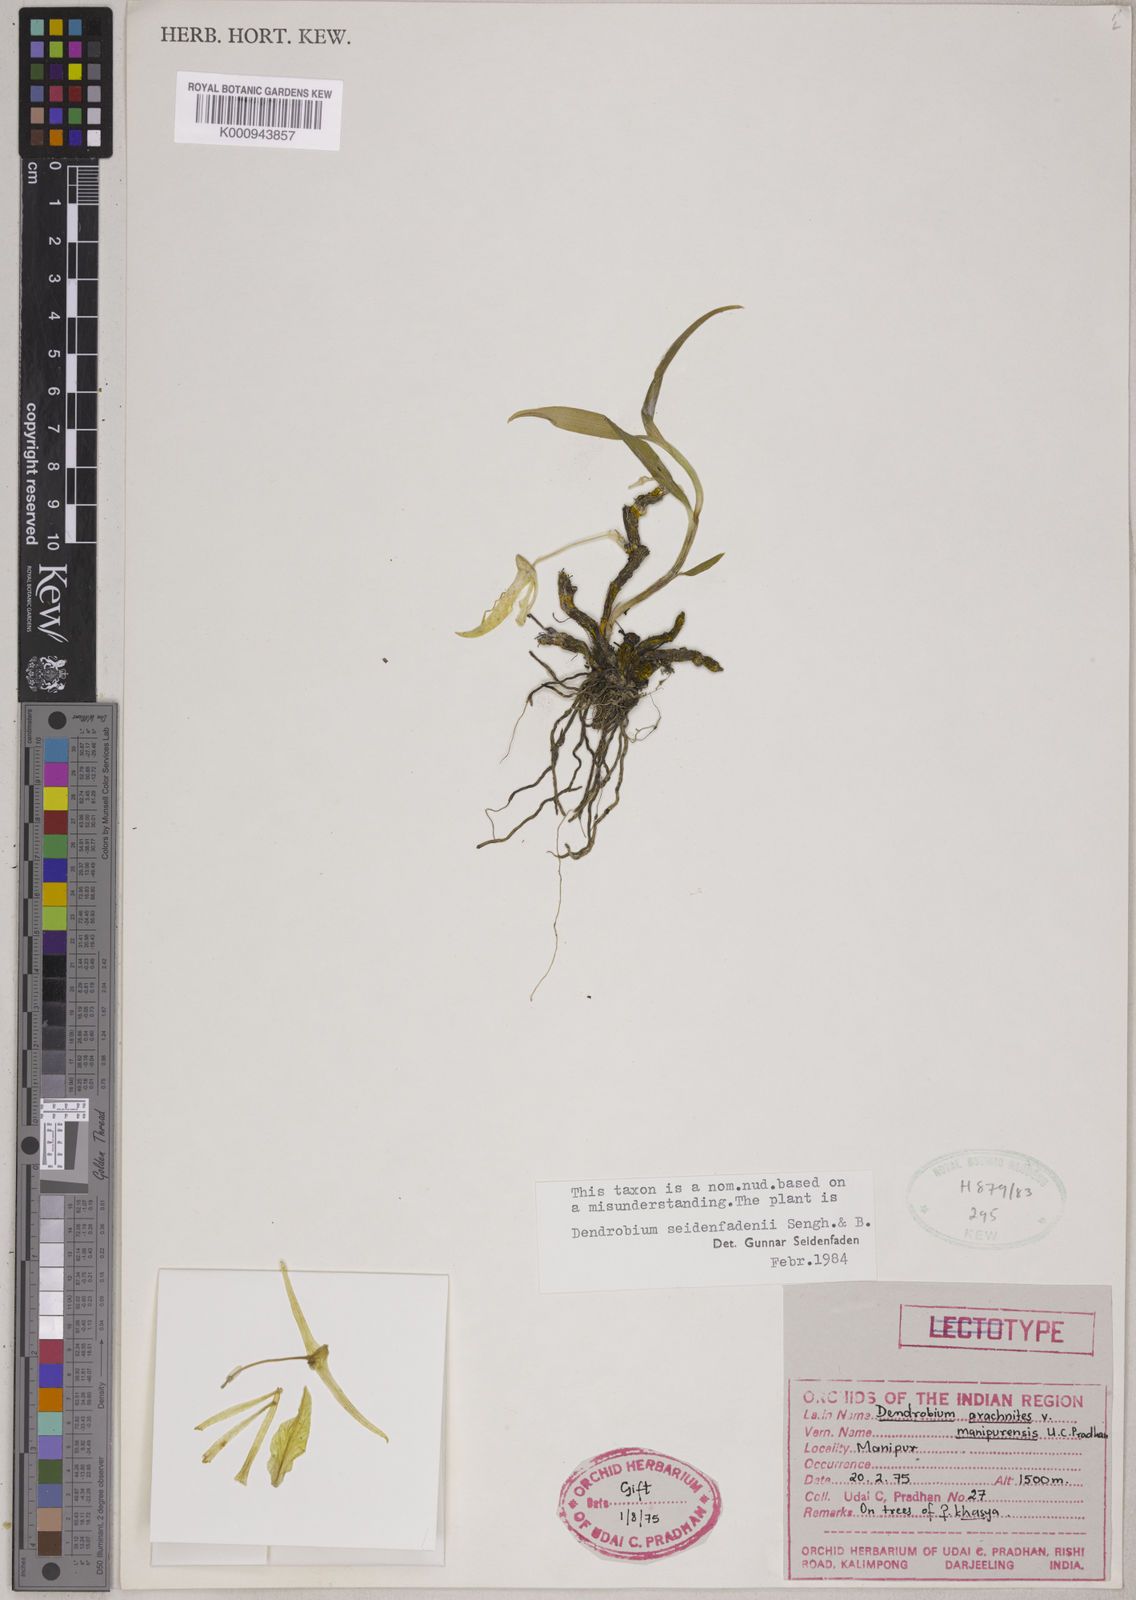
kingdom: Plantae
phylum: Tracheophyta
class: Liliopsida
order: Asparagales
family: Orchidaceae
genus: Dendrobium
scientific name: Dendrobium dickasonii
